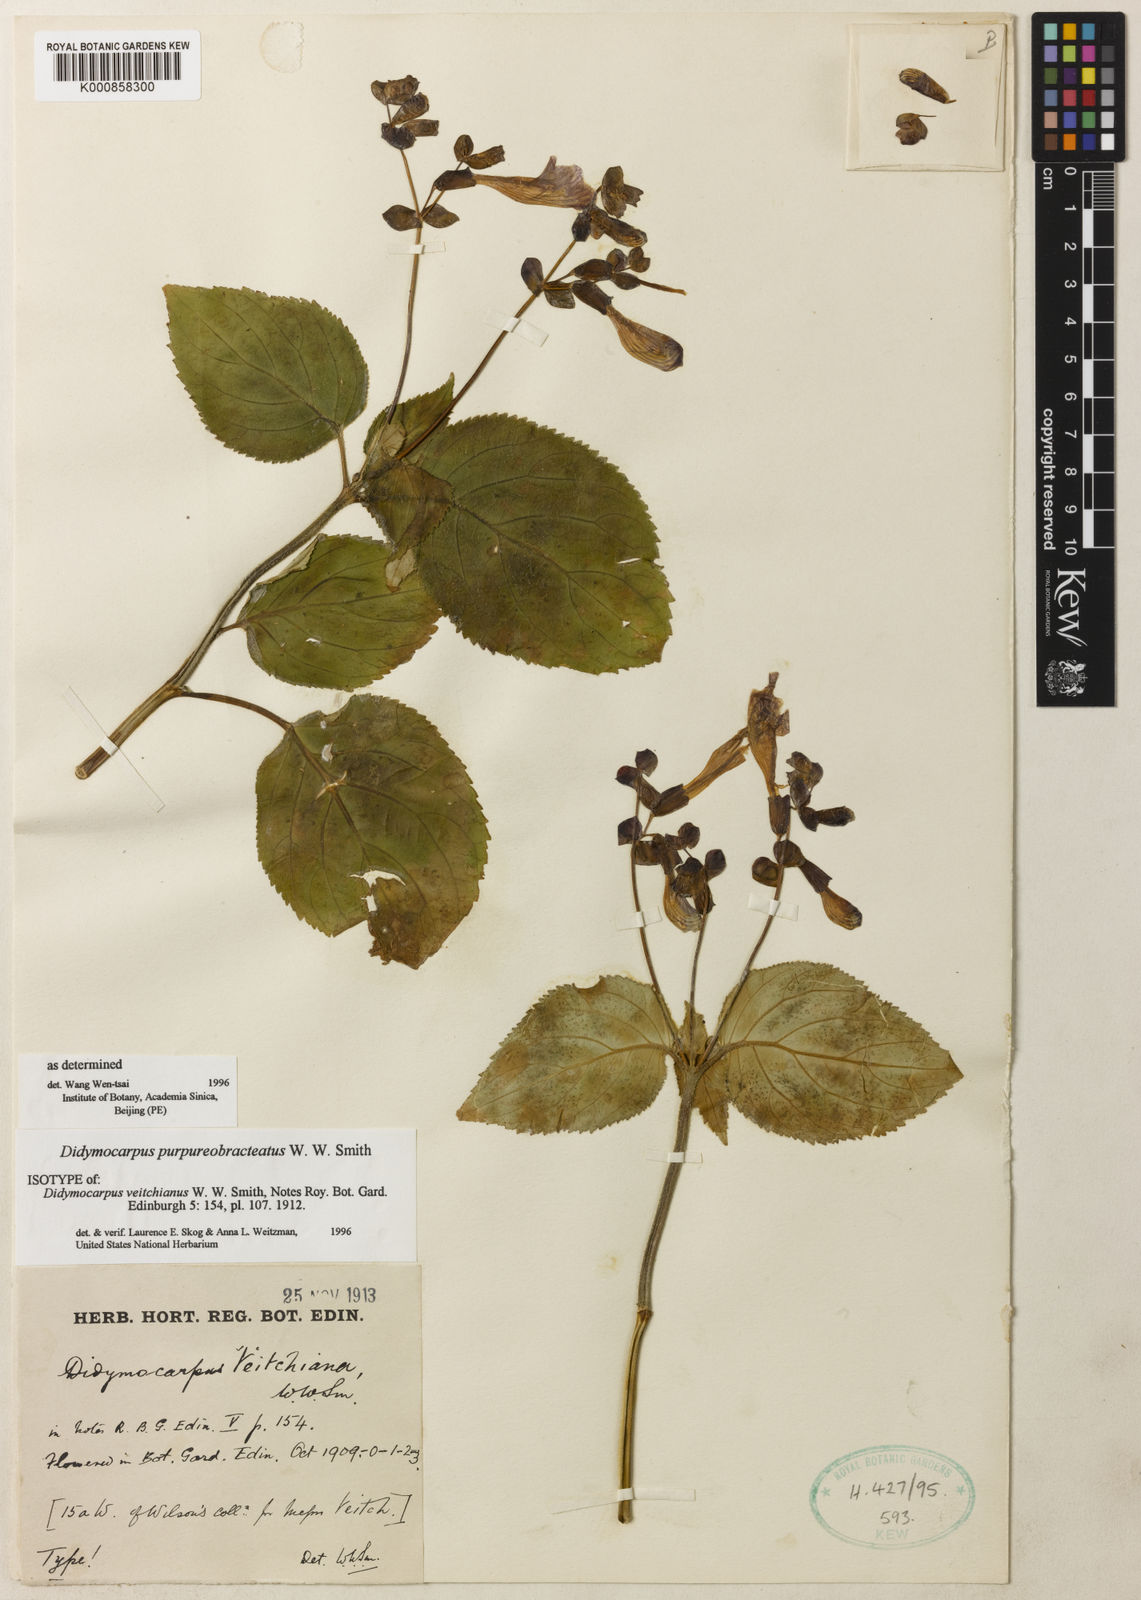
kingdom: Plantae
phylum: Tracheophyta
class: Magnoliopsida
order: Lamiales
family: Gesneriaceae
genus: Didymocarpus
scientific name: Didymocarpus purpureobracteatus
